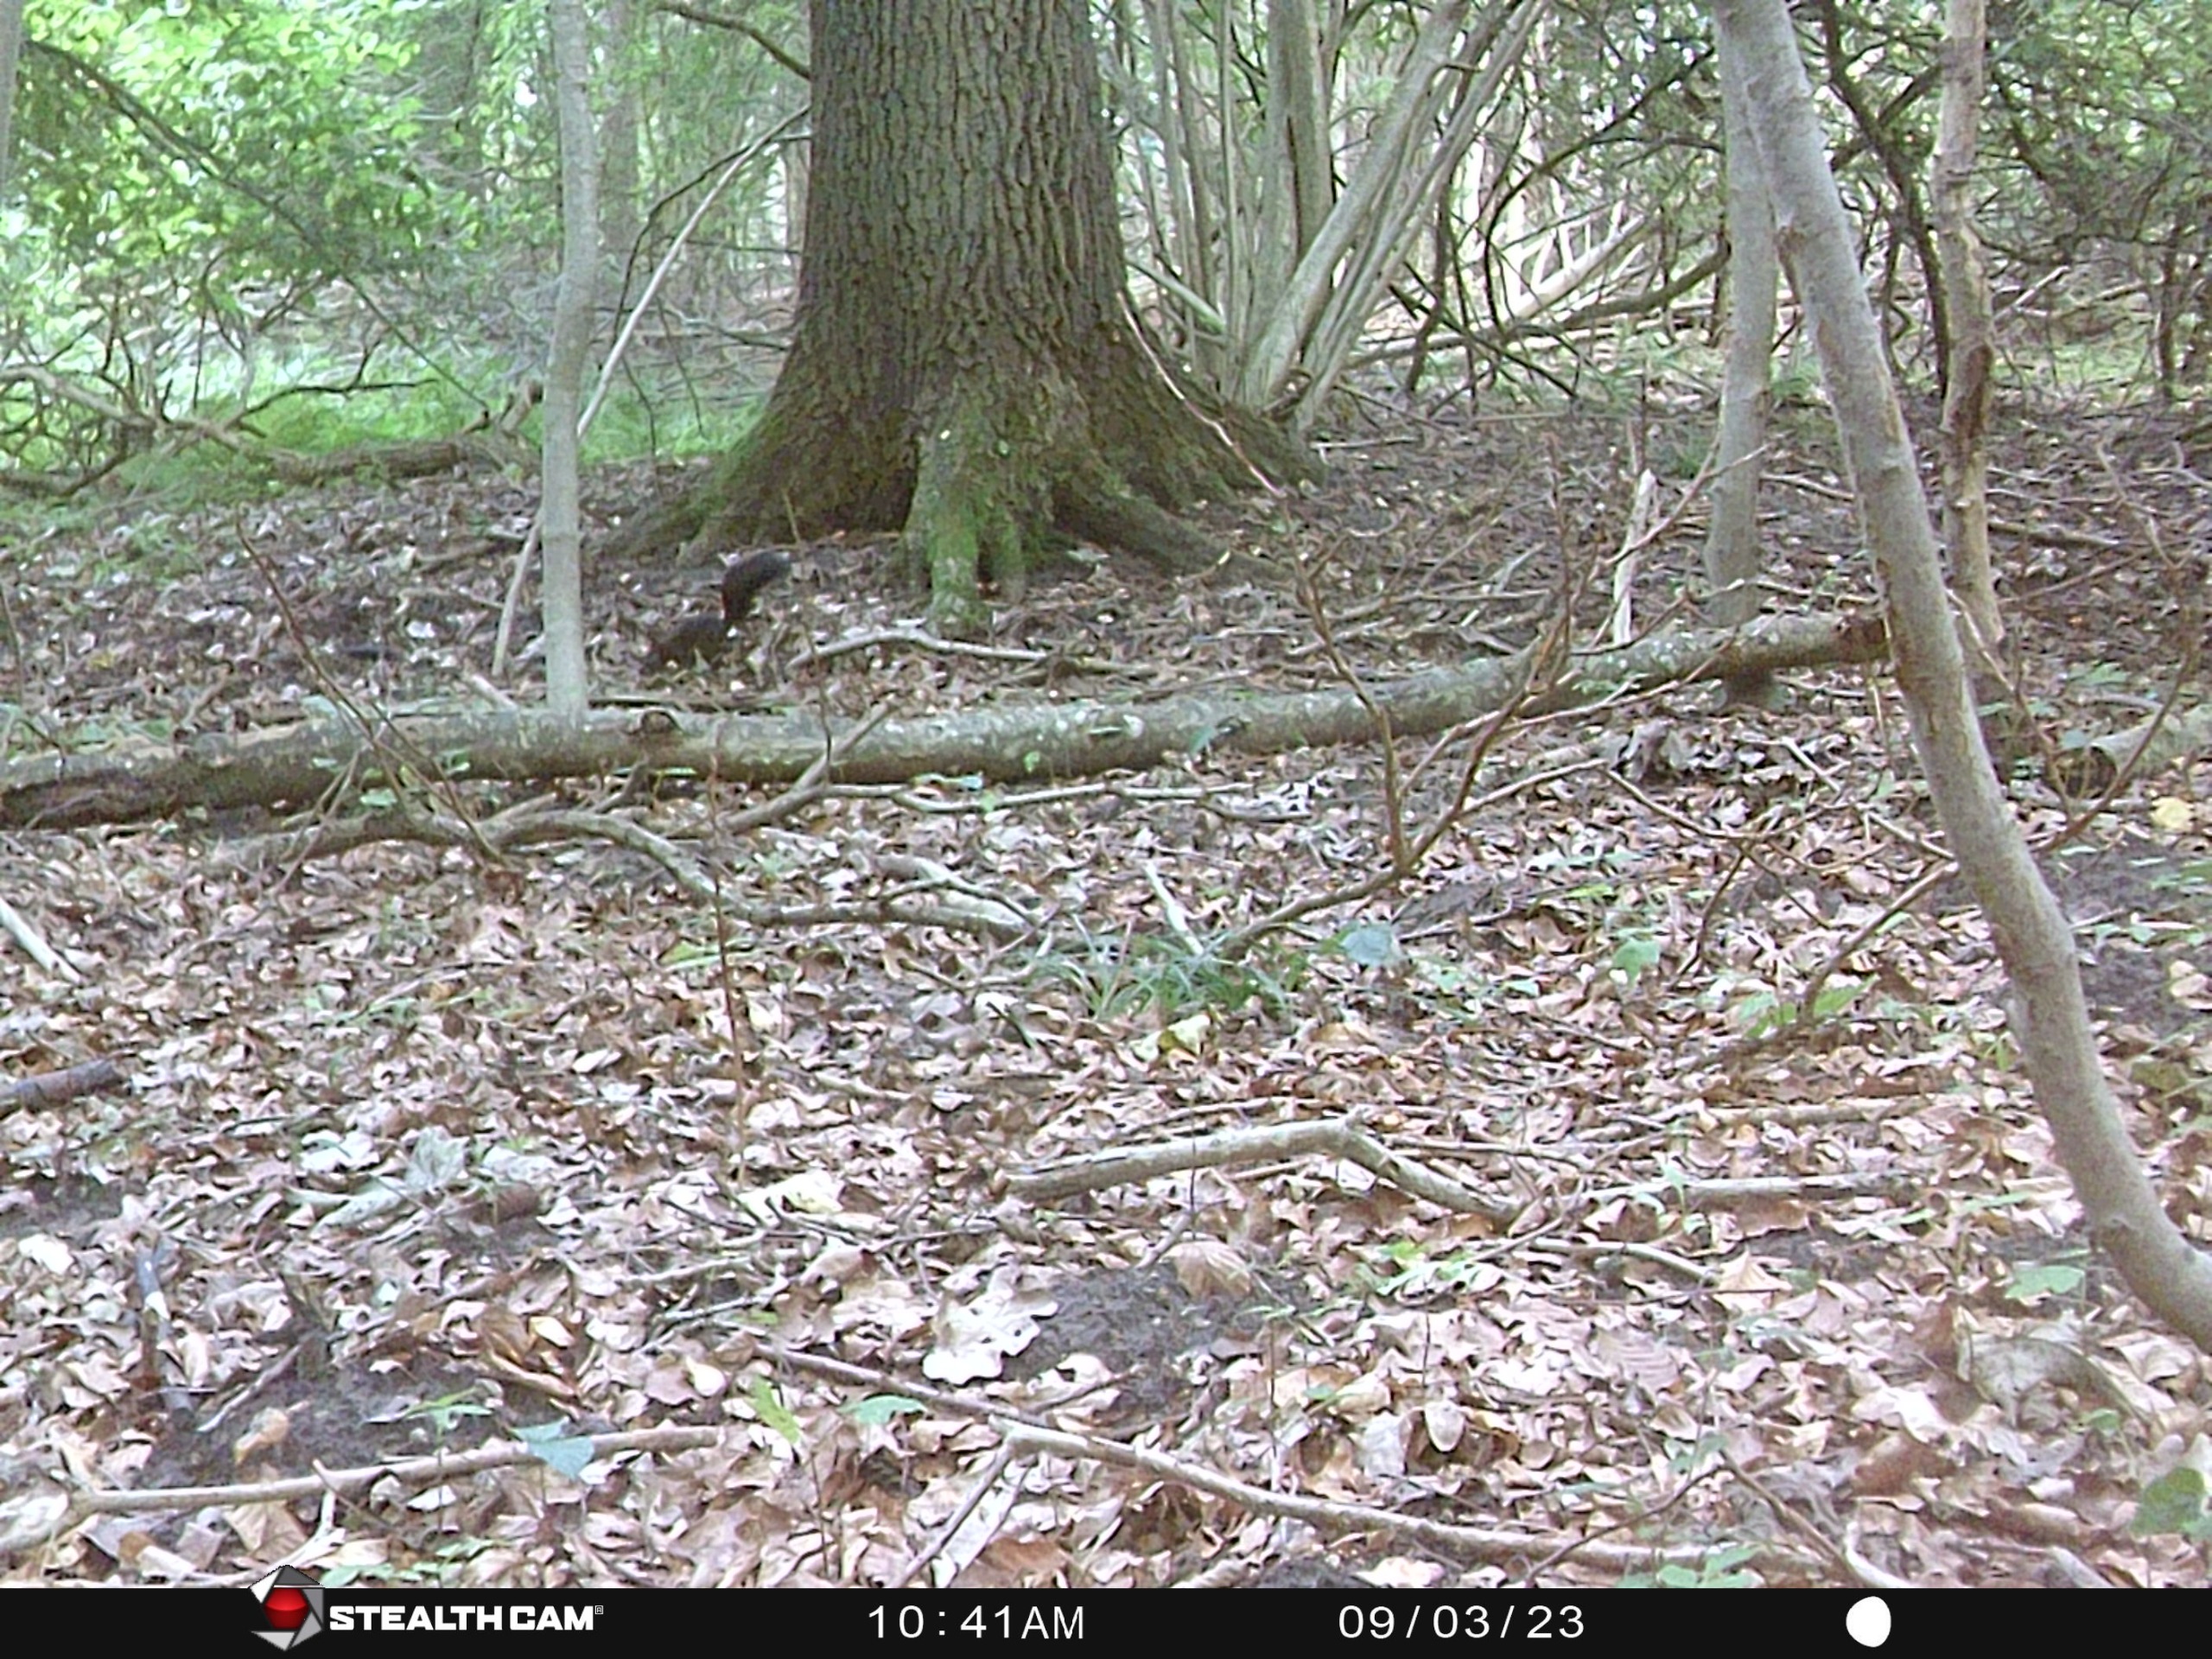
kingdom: Animalia
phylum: Chordata
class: Mammalia
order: Rodentia
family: Sciuridae
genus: Sciurus
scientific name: Sciurus vulgaris
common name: Egern
